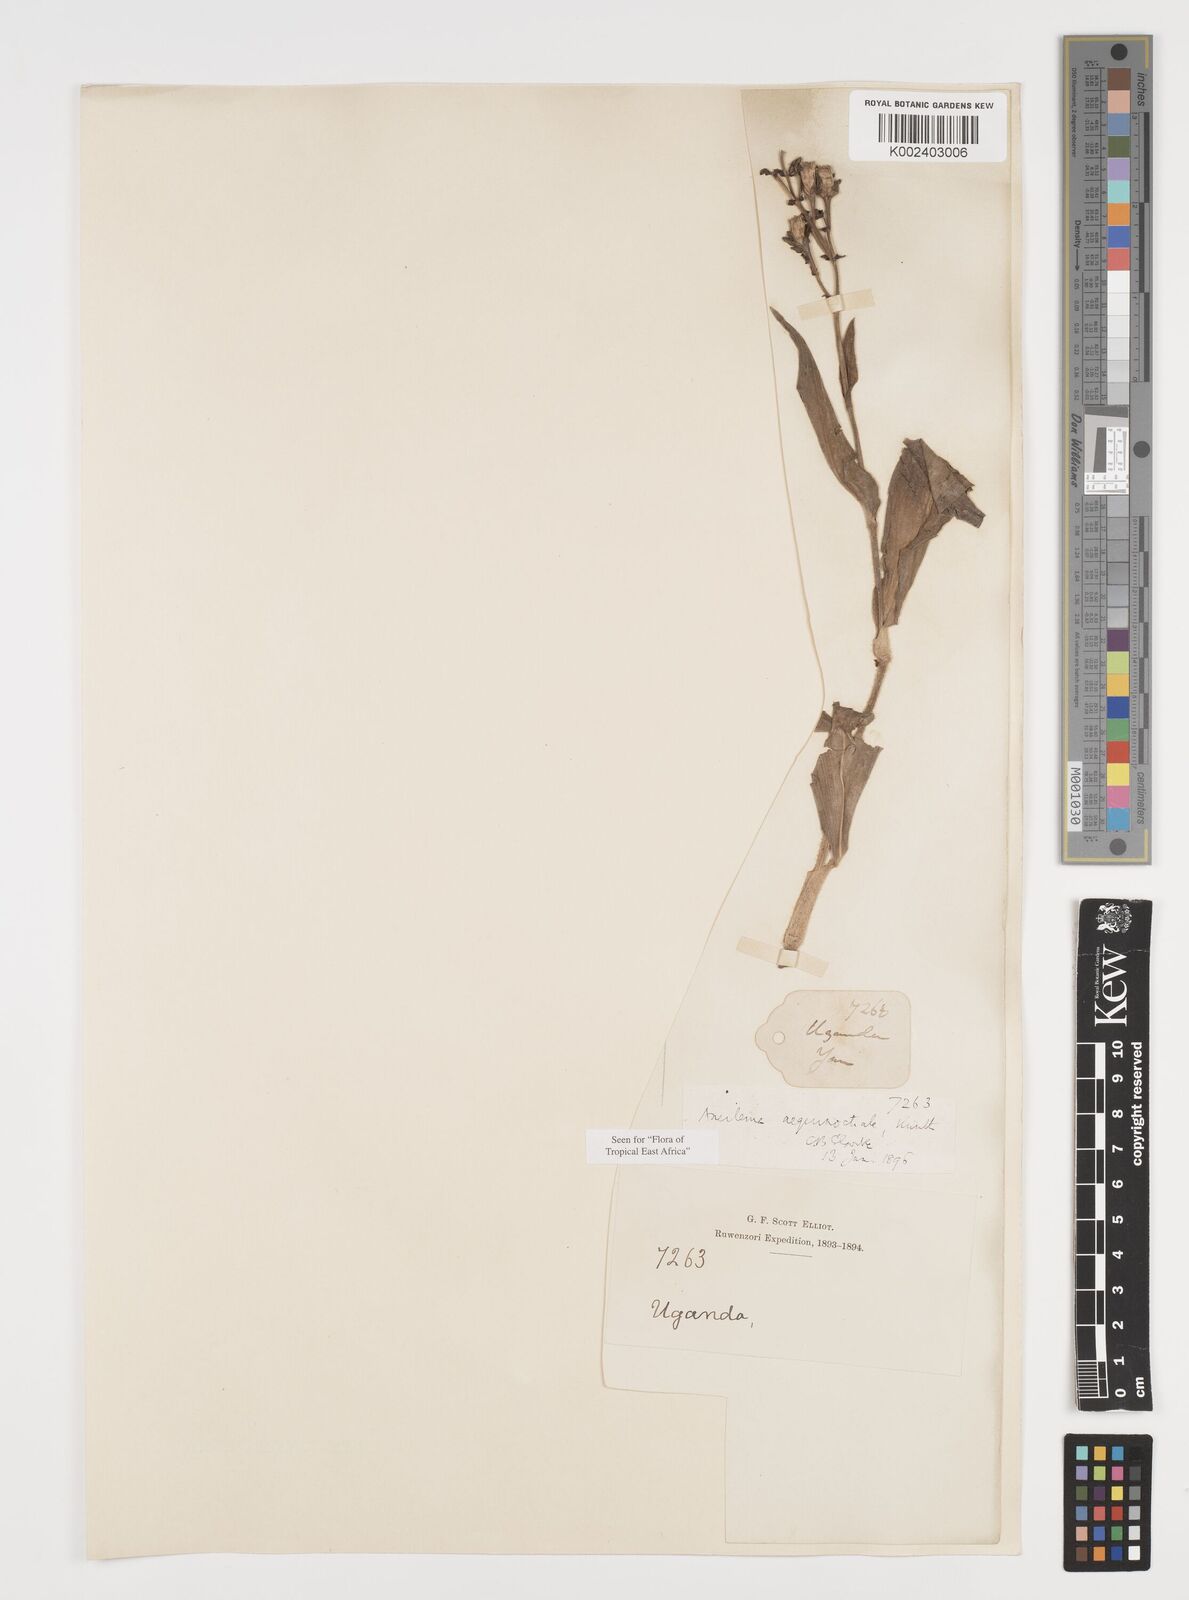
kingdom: Plantae
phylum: Tracheophyta
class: Liliopsida
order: Commelinales
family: Commelinaceae
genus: Aneilema
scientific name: Aneilema aequinoctiale
